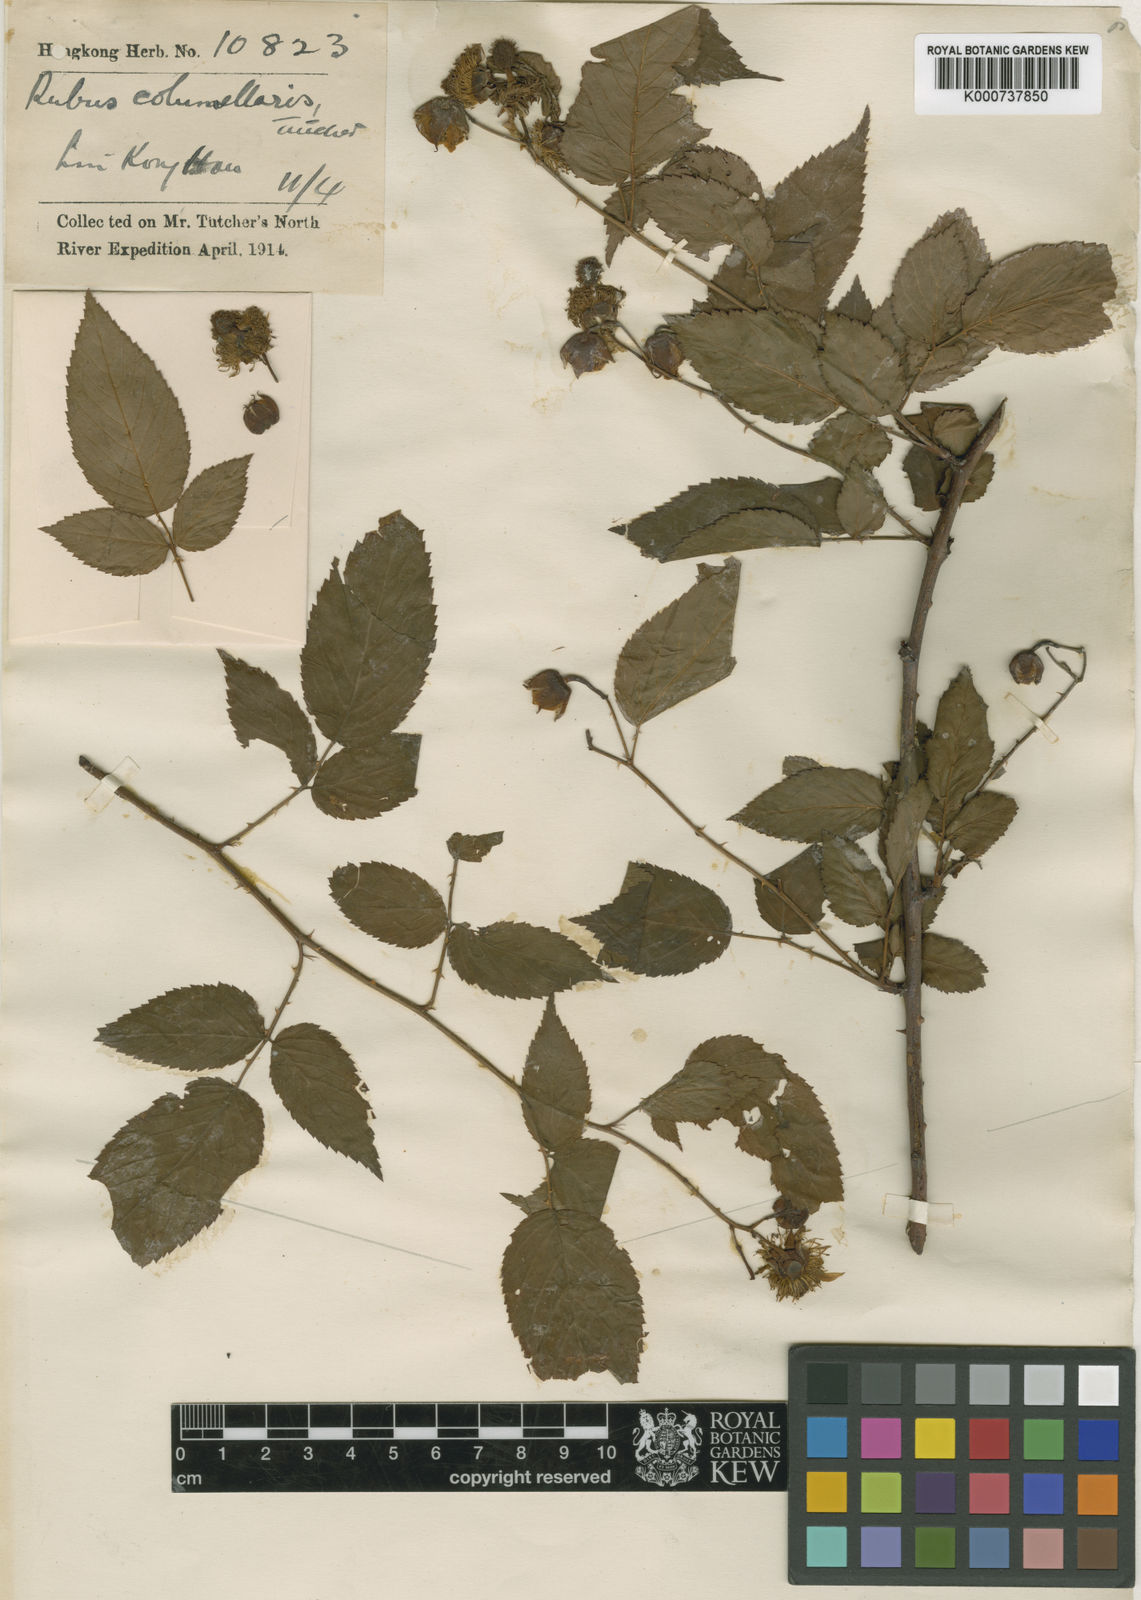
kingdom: Plantae
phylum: Tracheophyta
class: Magnoliopsida
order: Rosales
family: Rosaceae
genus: Rubus
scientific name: Rubus columellaris
